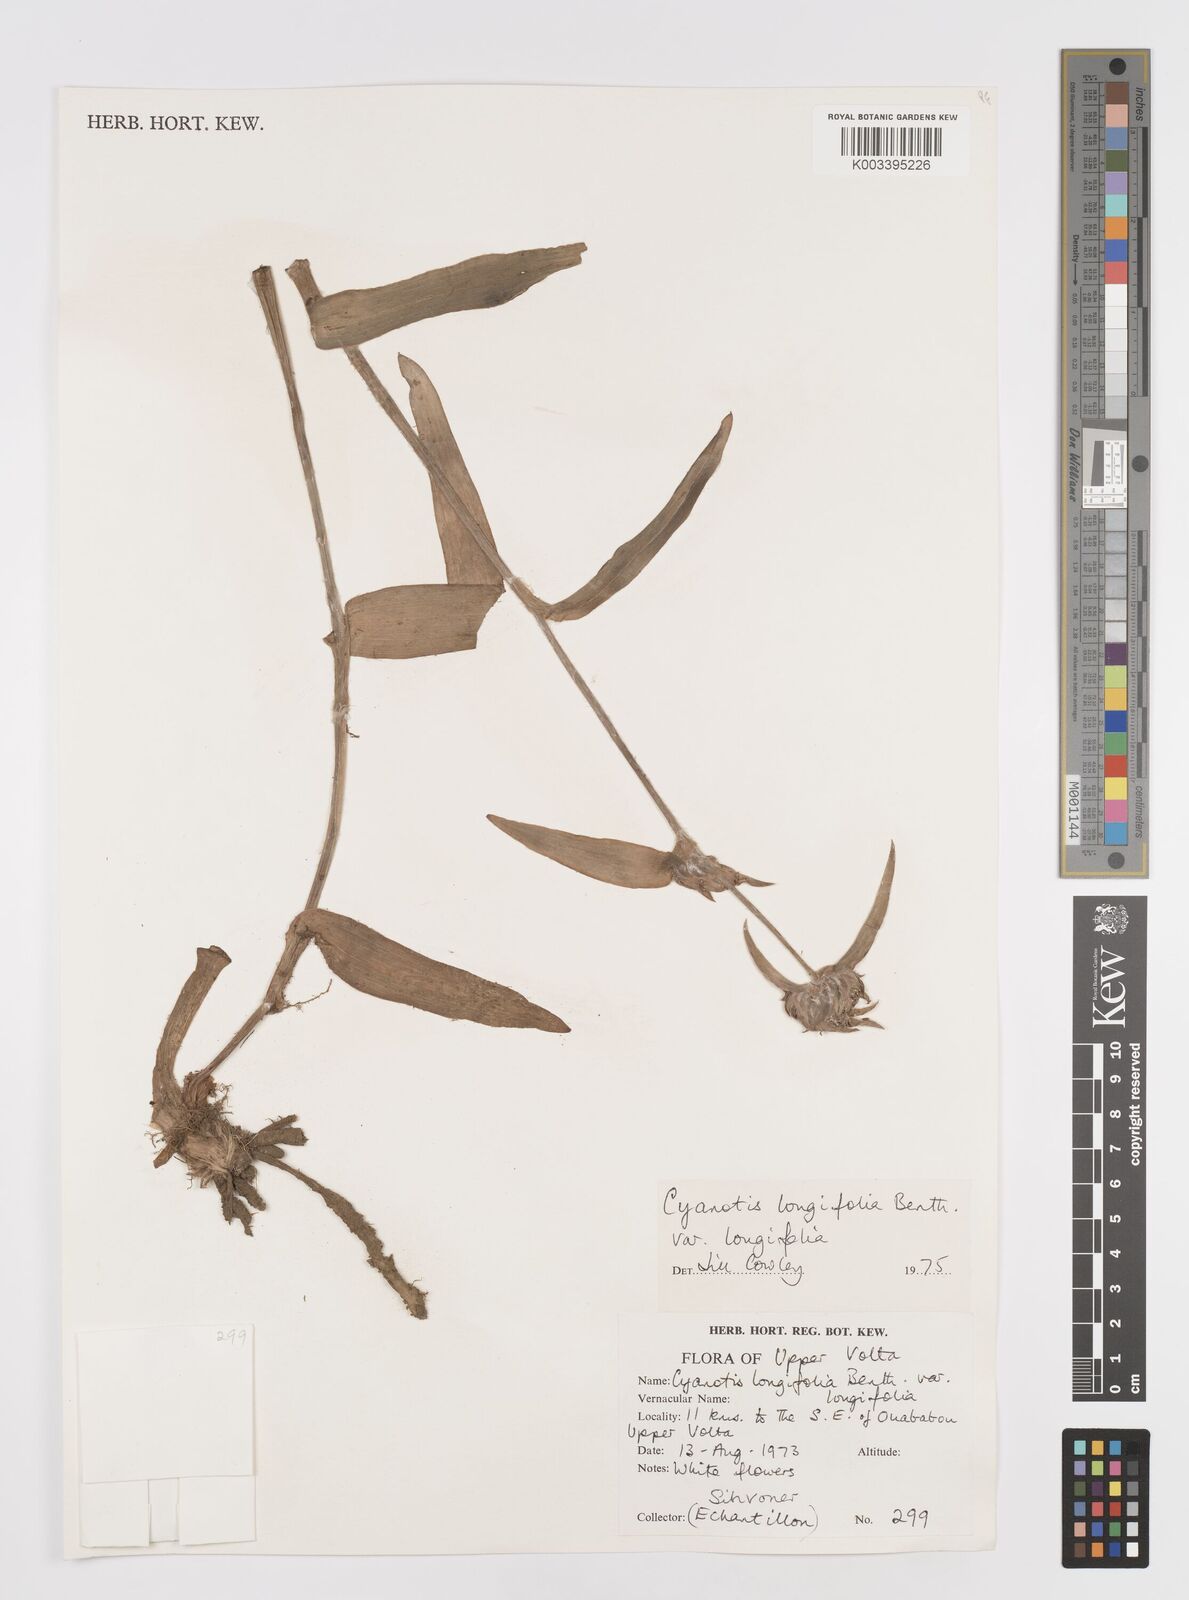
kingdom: Plantae
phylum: Tracheophyta
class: Liliopsida
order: Commelinales
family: Commelinaceae
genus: Cyanotis
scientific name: Cyanotis longifolia
